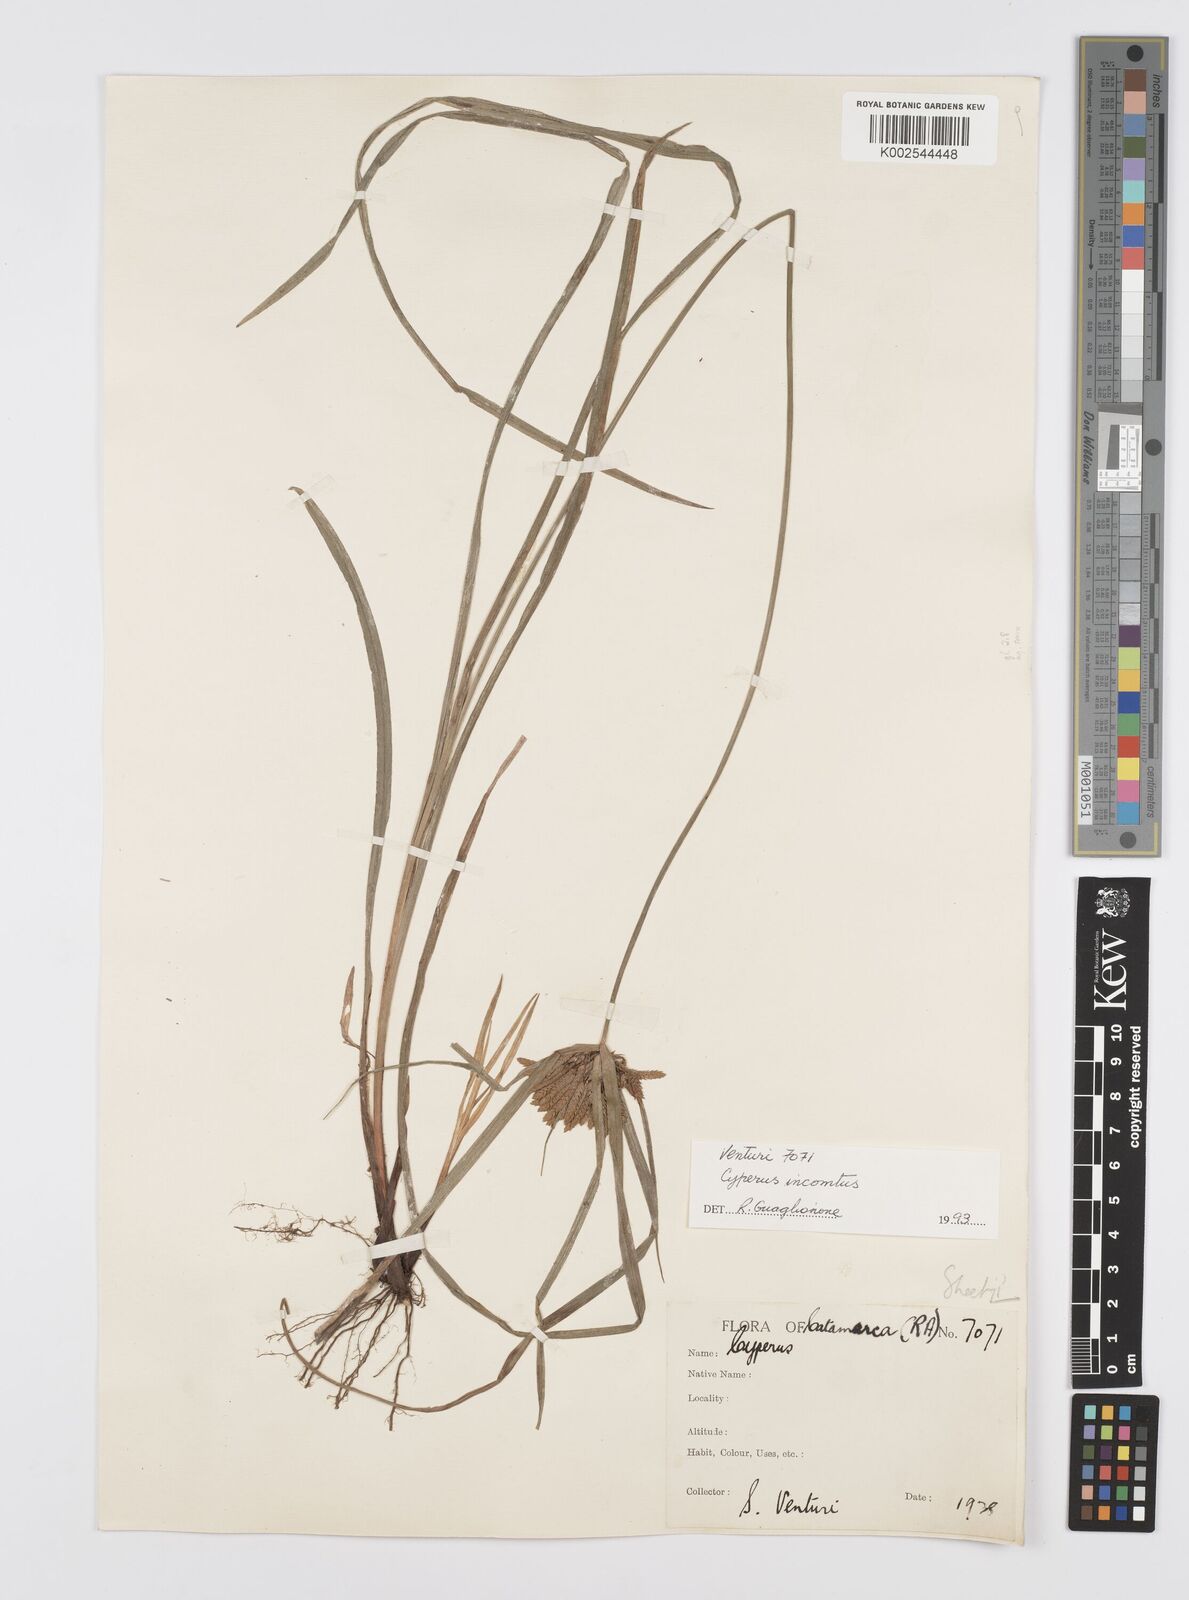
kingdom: Plantae
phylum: Tracheophyta
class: Liliopsida
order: Poales
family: Cyperaceae
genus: Cyperus
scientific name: Cyperus
